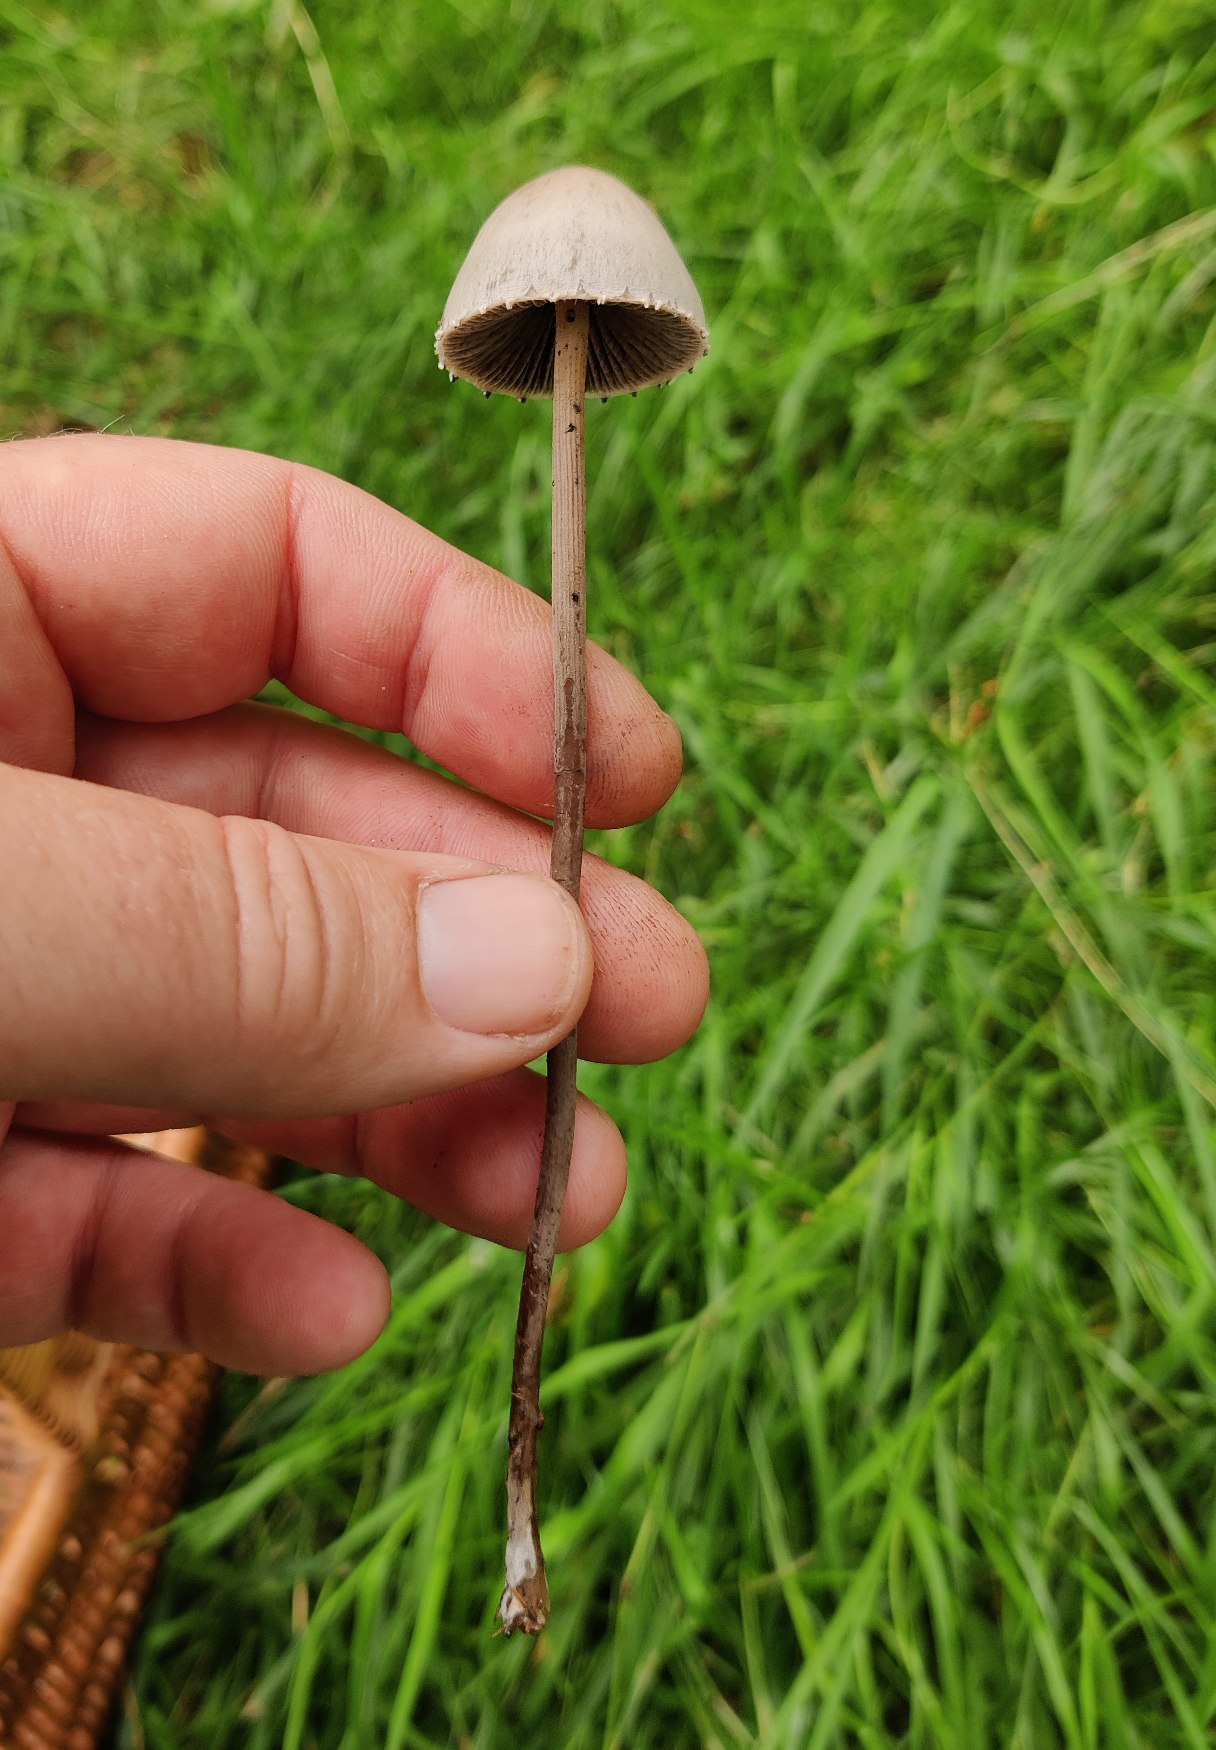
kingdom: Fungi
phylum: Basidiomycota
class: Agaricomycetes
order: Agaricales
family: Bolbitiaceae
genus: Panaeolus
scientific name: Panaeolus papilionaceus
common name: Almindelig glanshat
